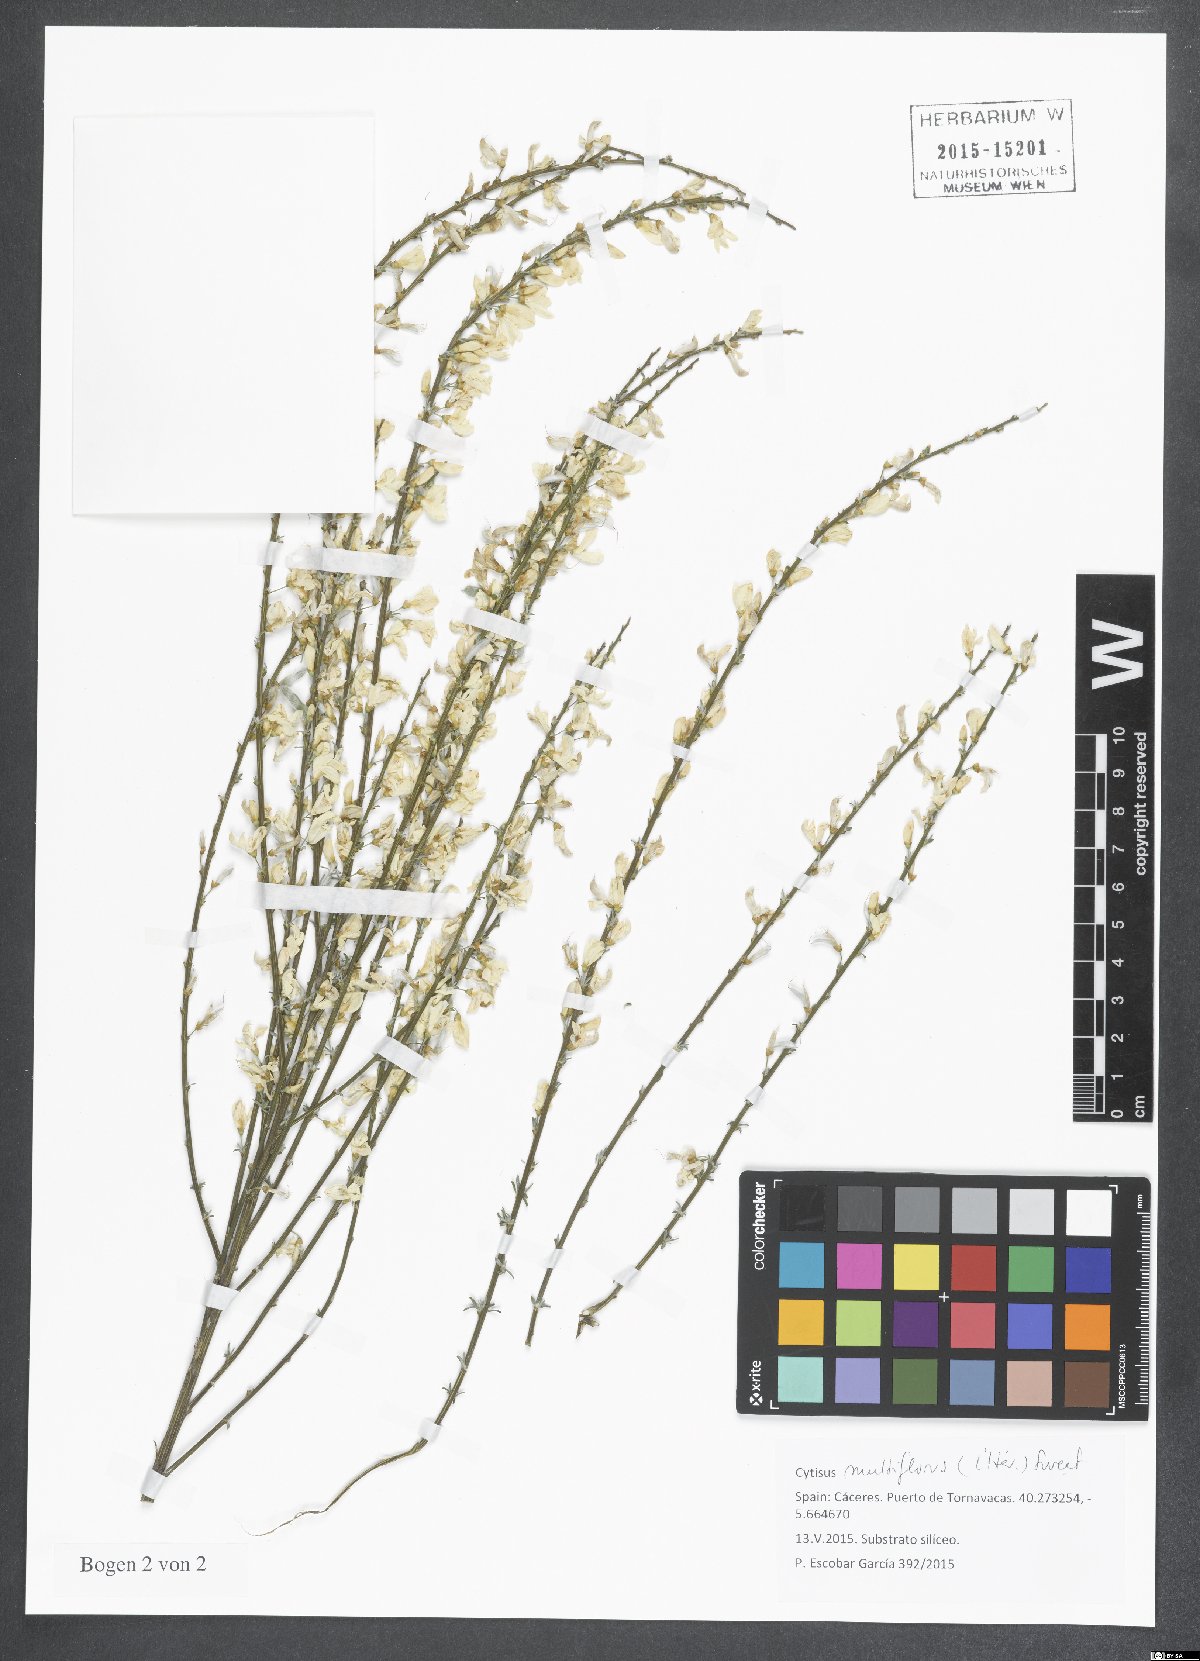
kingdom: Plantae
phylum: Tracheophyta
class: Magnoliopsida
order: Fabales
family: Fabaceae
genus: Cytisus
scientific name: Cytisus multiflorus
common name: White broom
